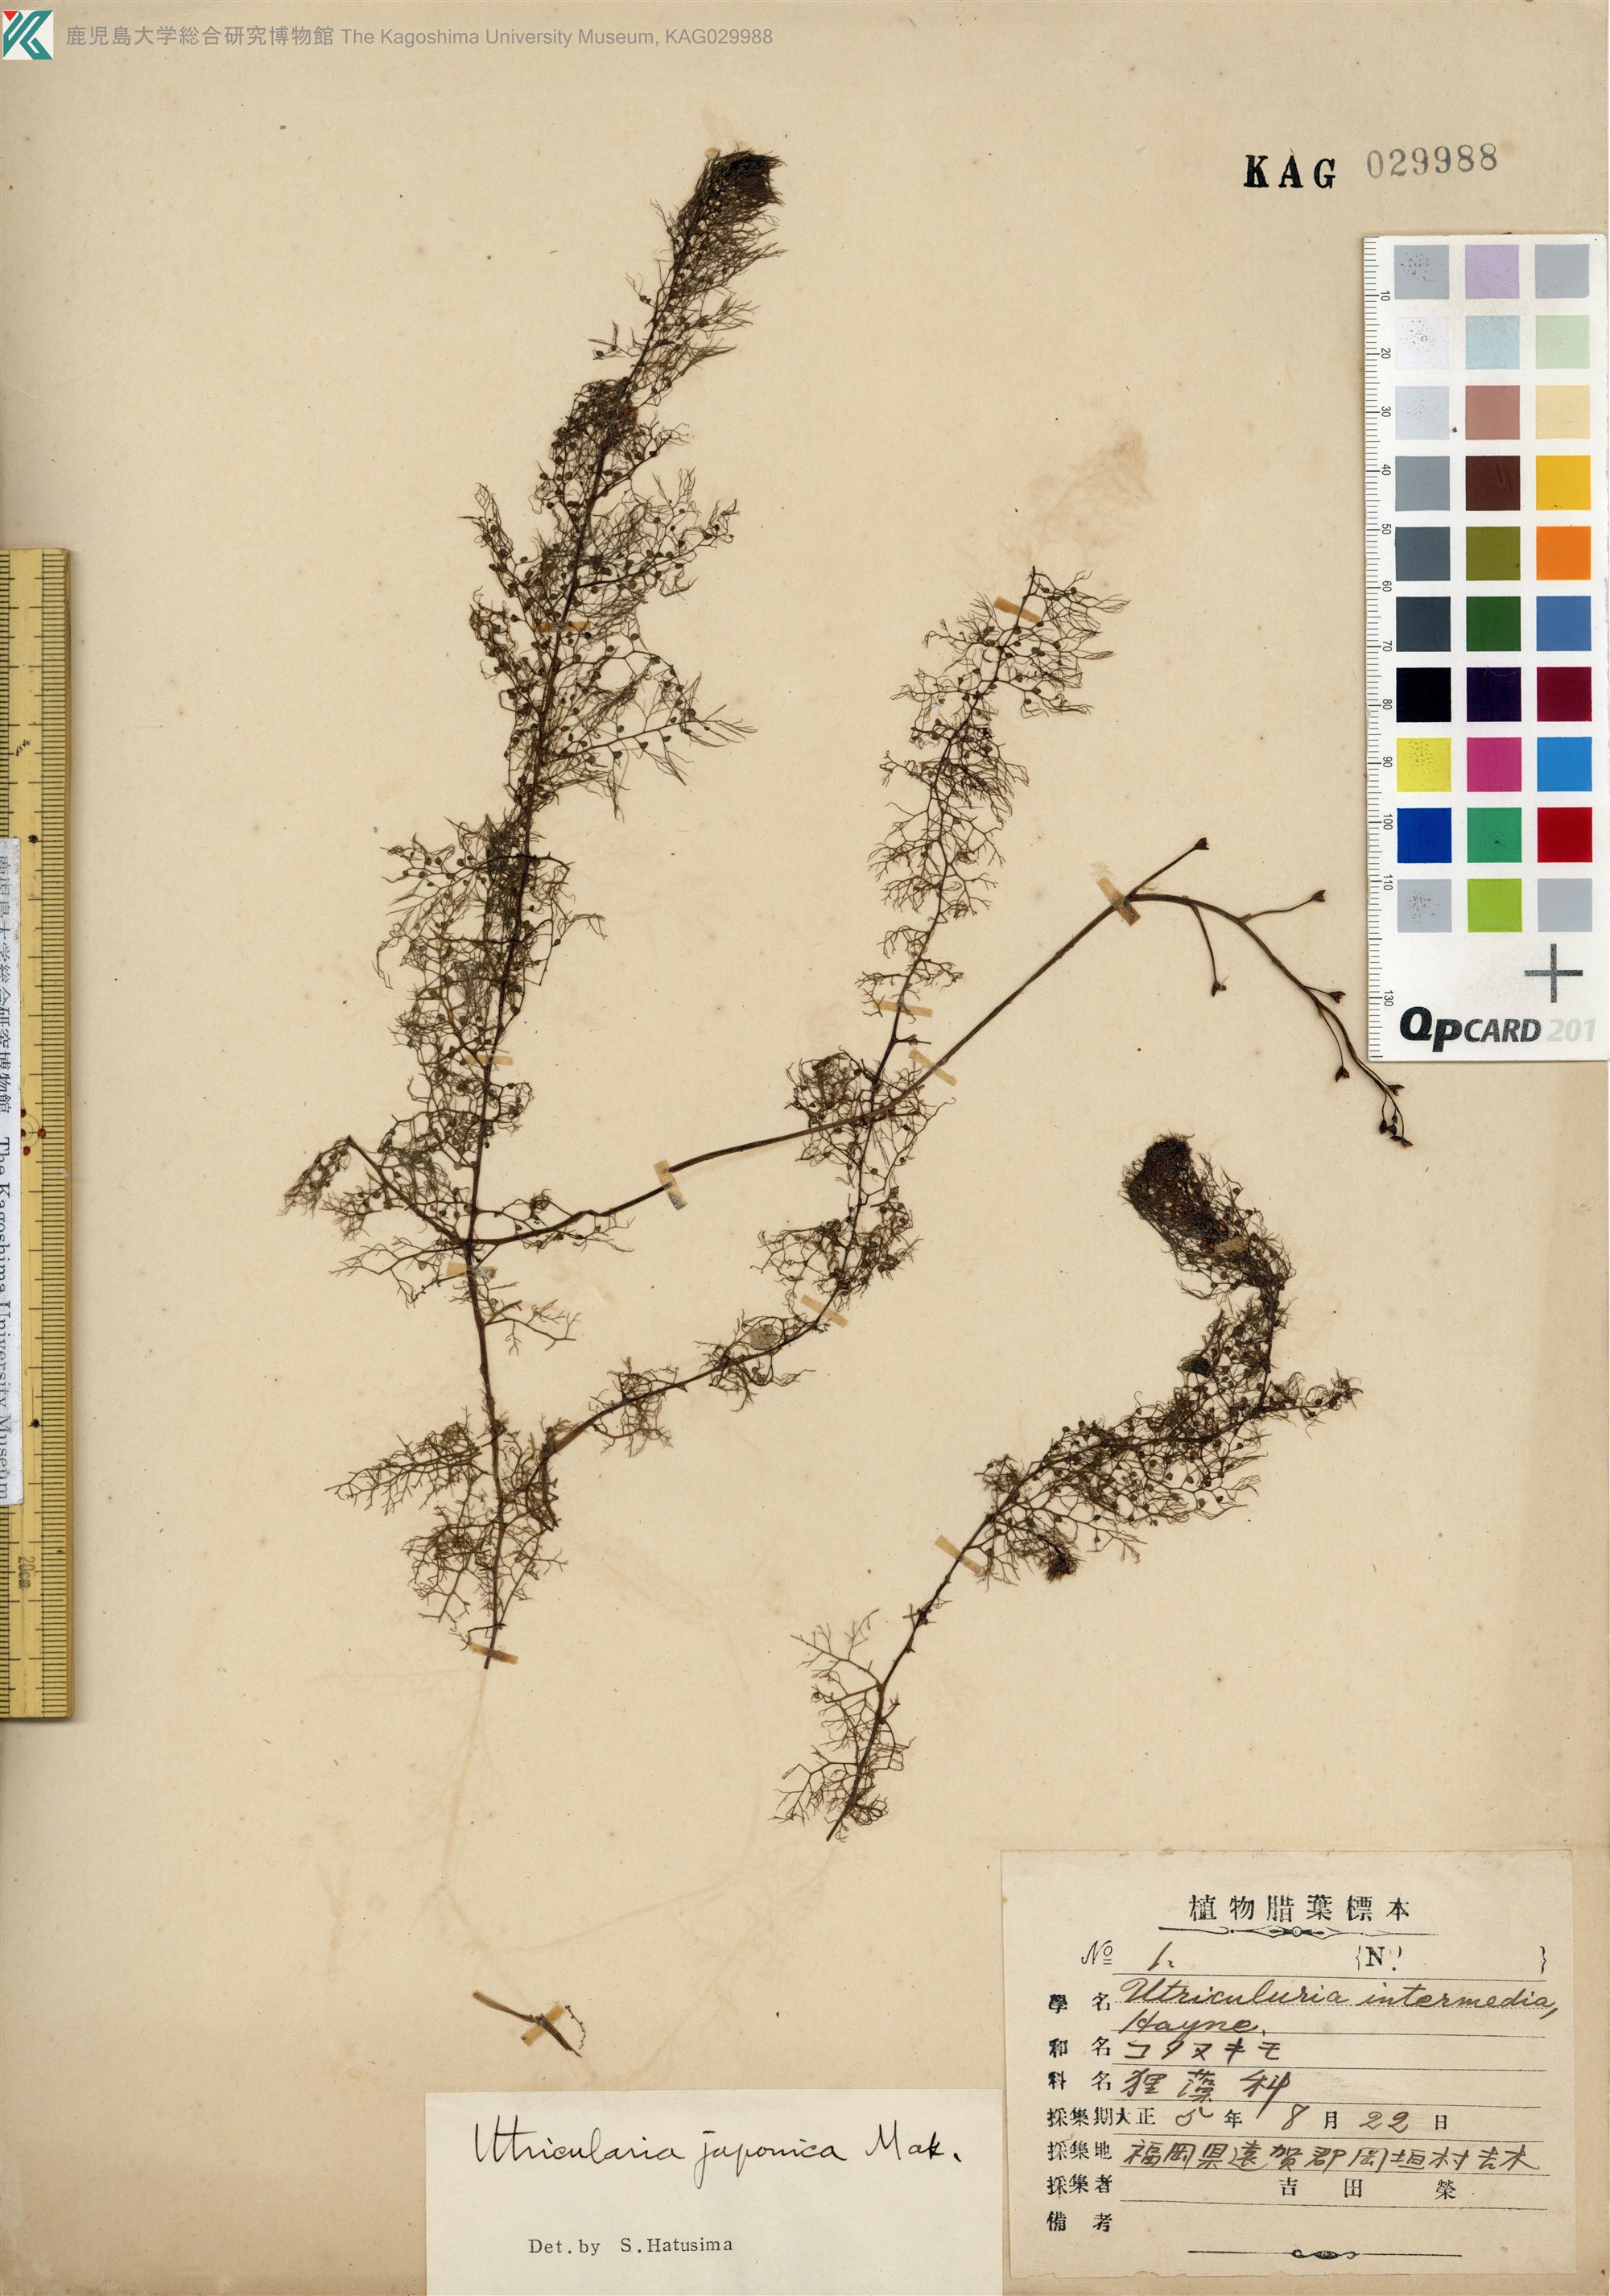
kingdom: Plantae
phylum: Tracheophyta
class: Magnoliopsida
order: Lamiales
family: Lentibulariaceae
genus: Utricularia
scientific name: Utricularia japonica
